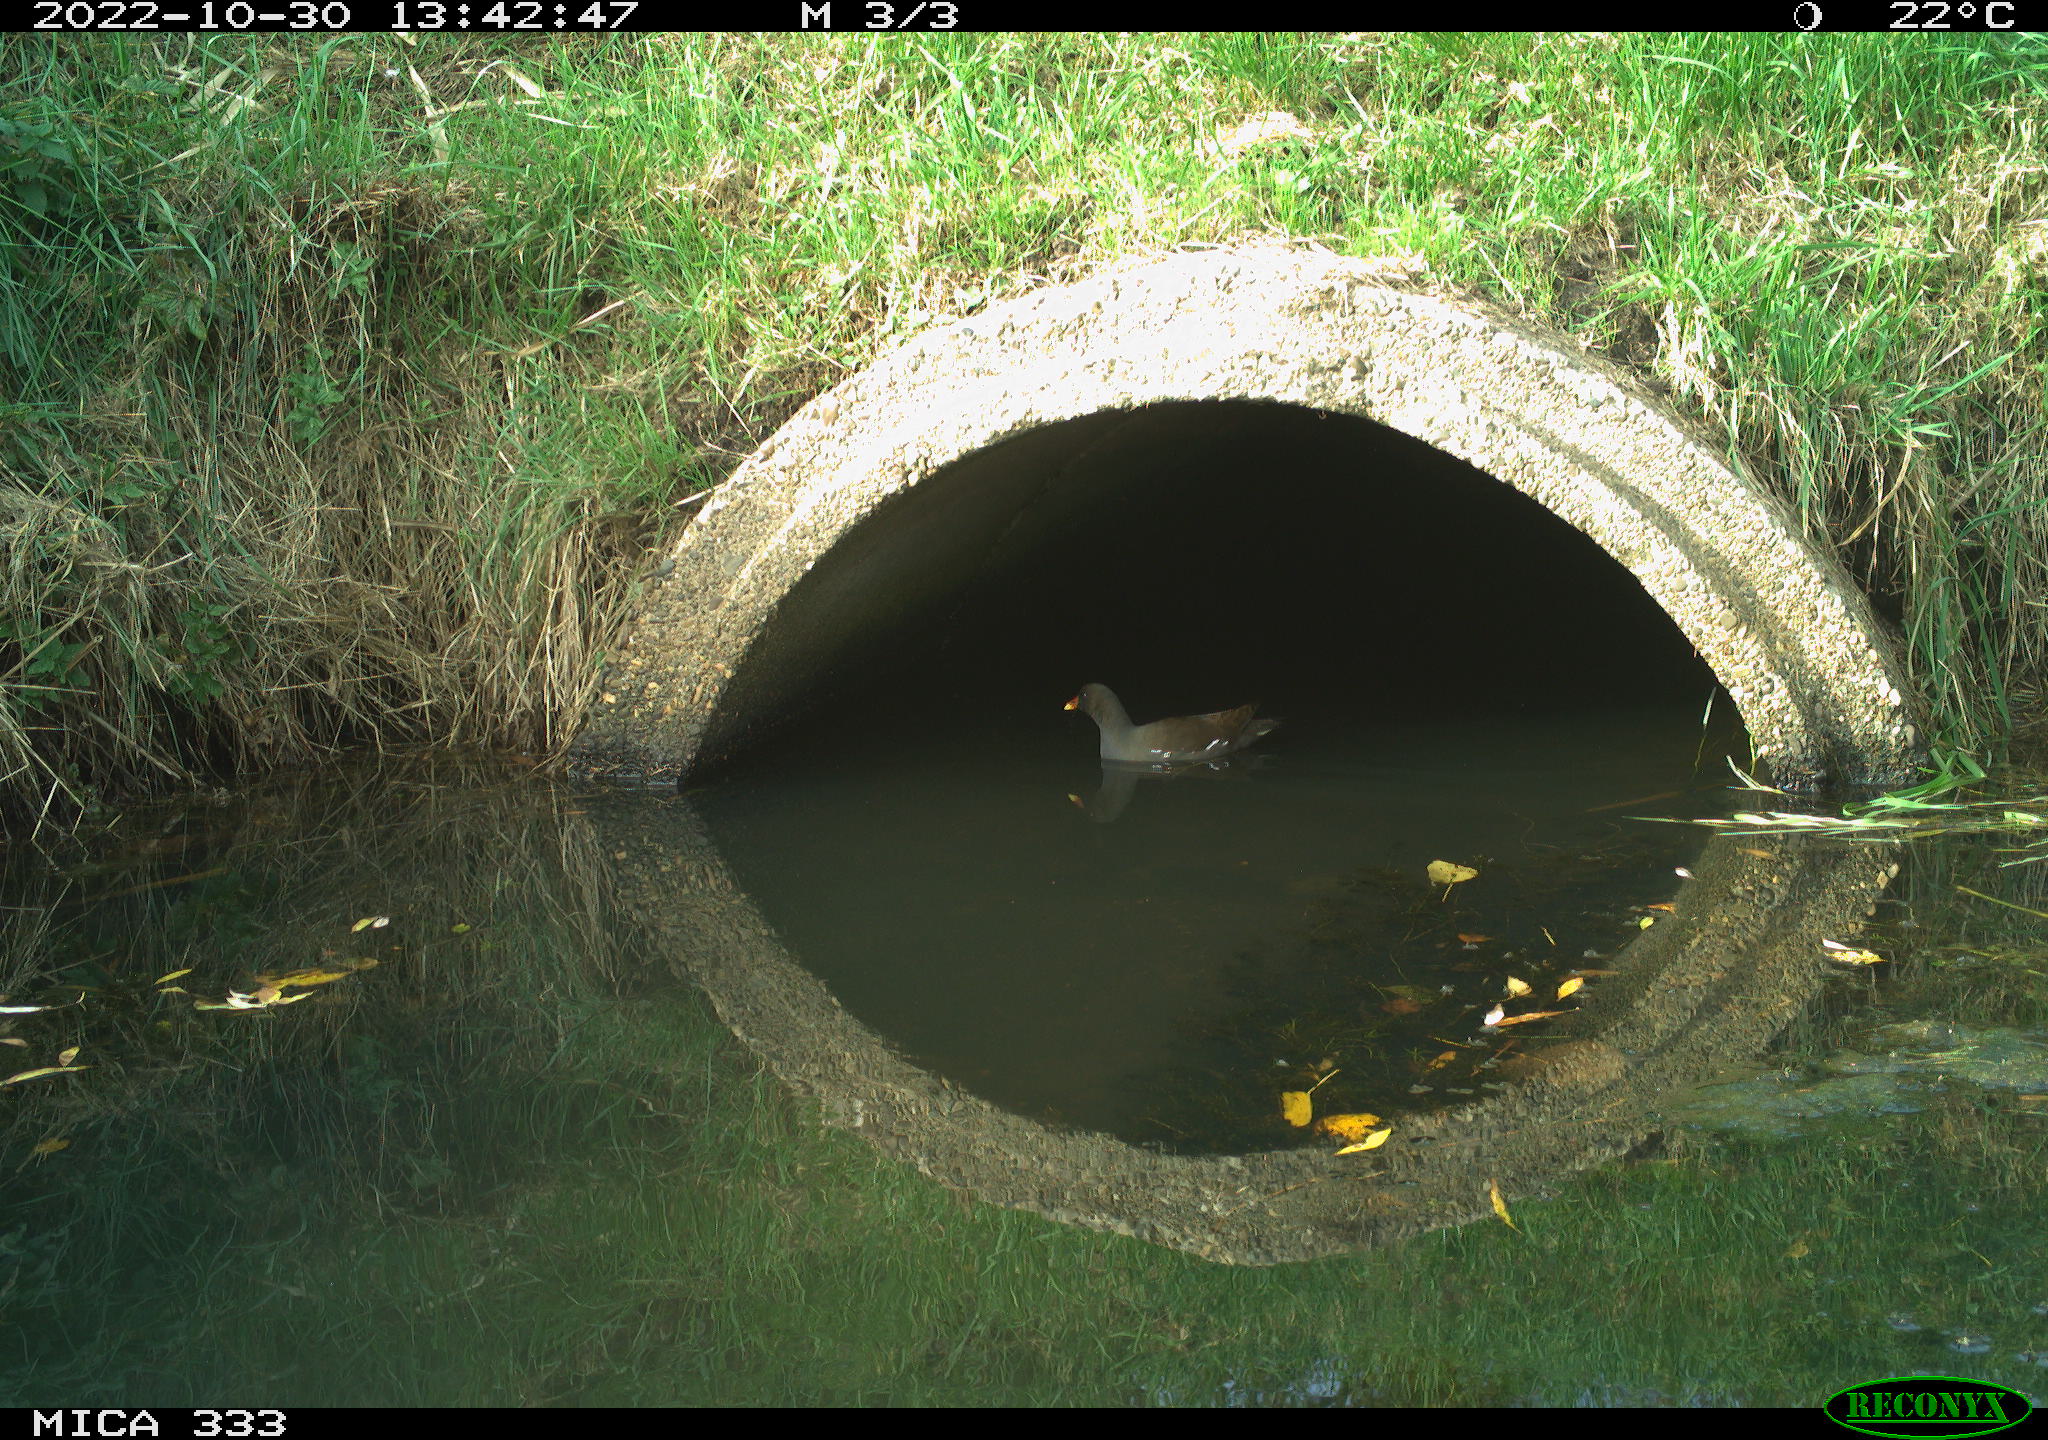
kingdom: Animalia
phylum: Chordata
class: Aves
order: Gruiformes
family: Rallidae
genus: Gallinula
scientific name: Gallinula chloropus
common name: Common moorhen
